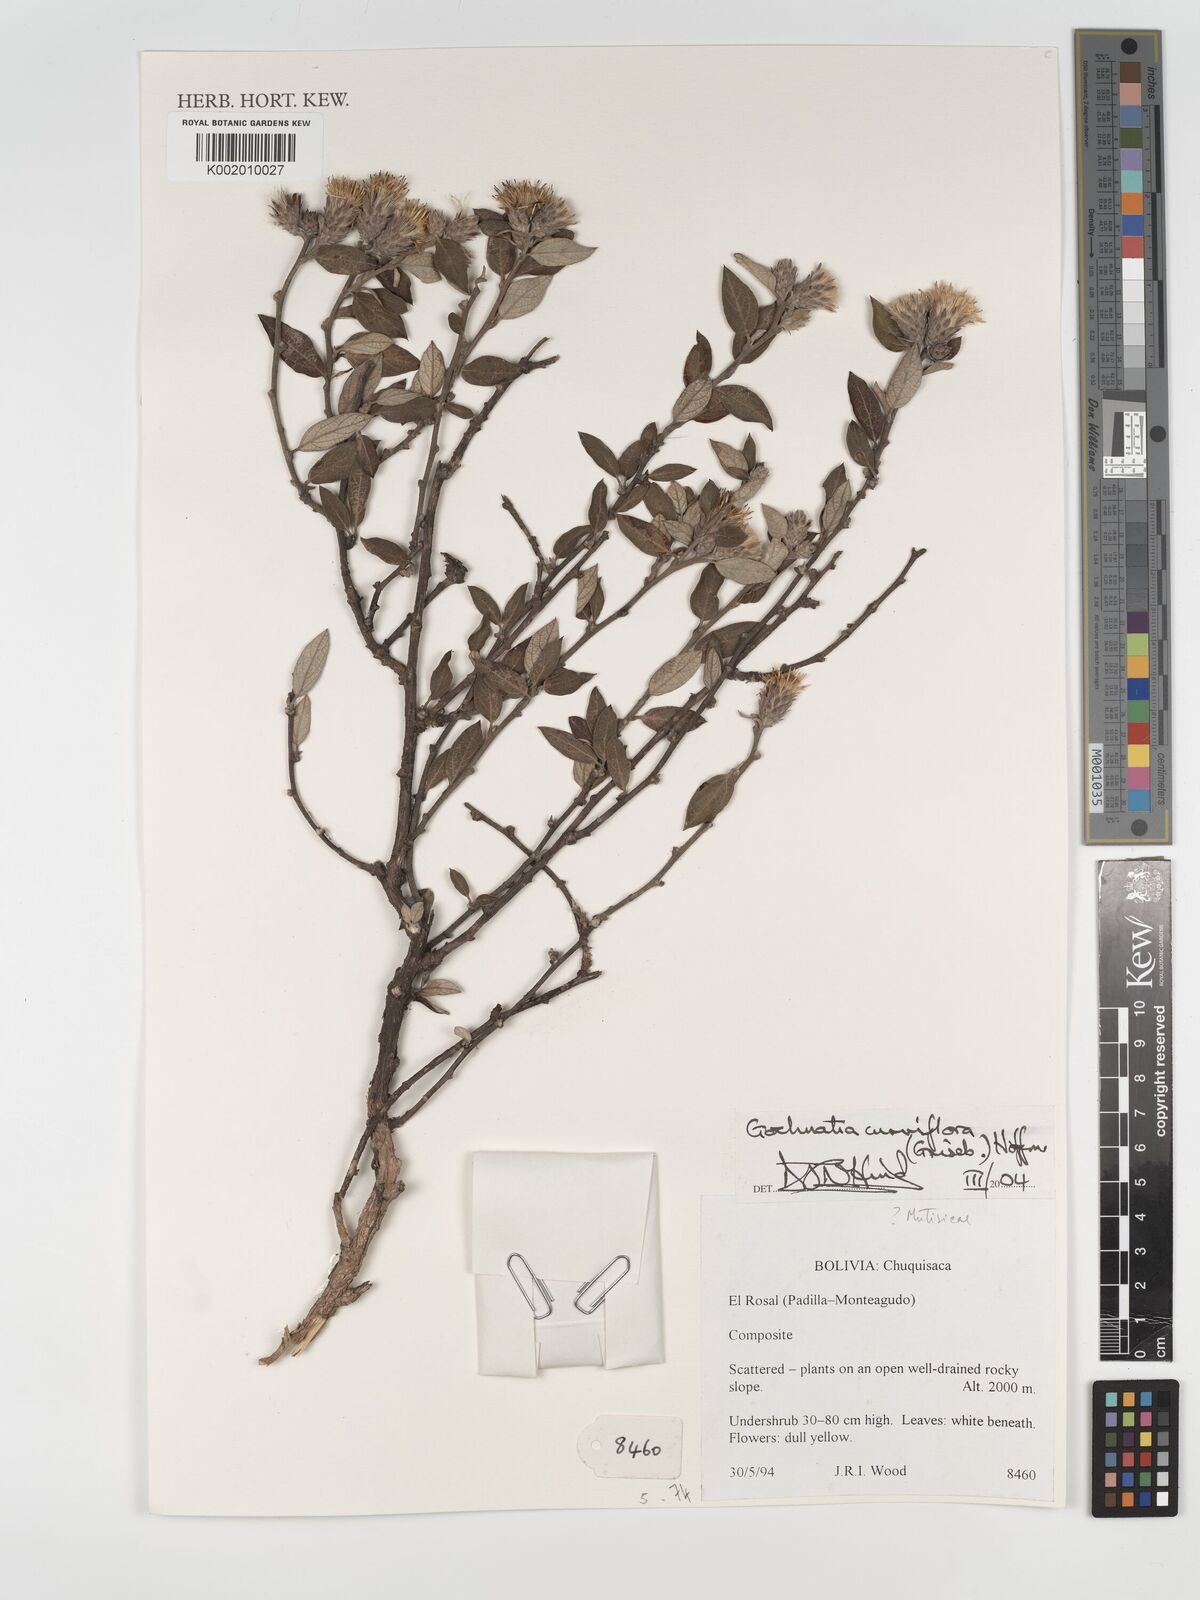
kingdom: Plantae
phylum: Tracheophyta
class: Magnoliopsida
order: Asterales
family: Asteraceae
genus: Gochnatia
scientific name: Gochnatia curviflora
